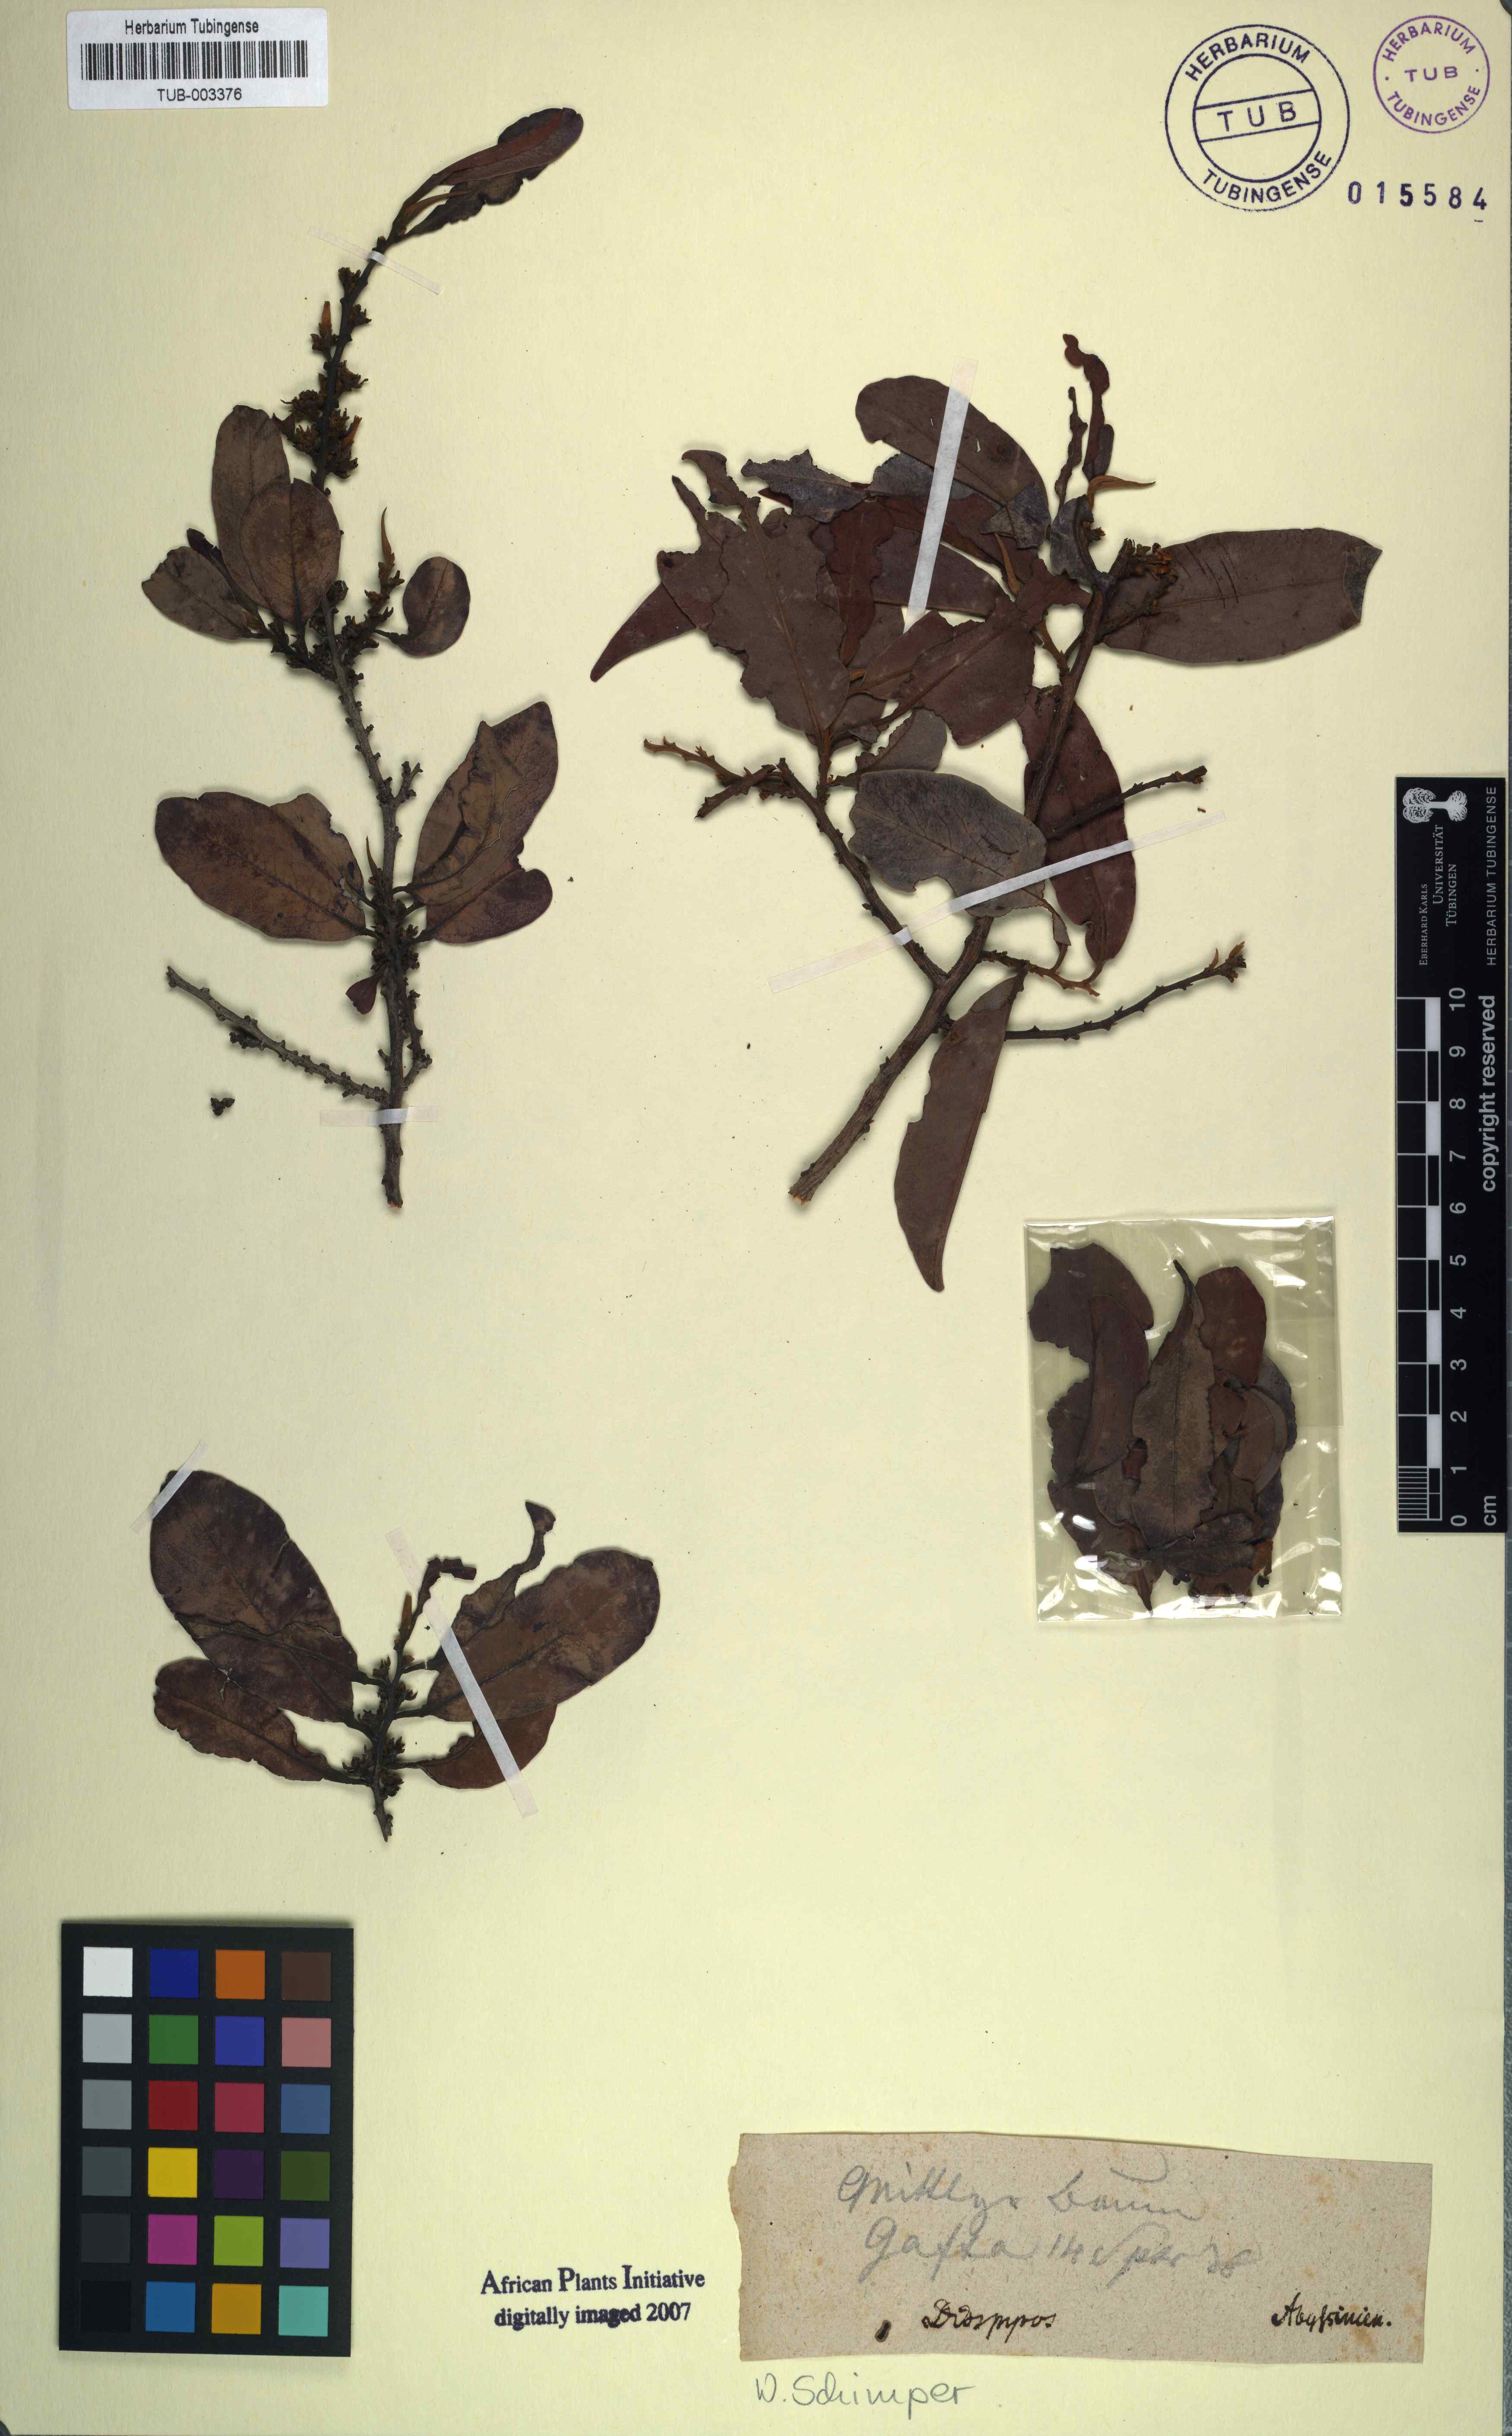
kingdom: Plantae
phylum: Tracheophyta
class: Magnoliopsida
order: Ericales
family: Ebenaceae
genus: Diospyros
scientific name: Diospyros
